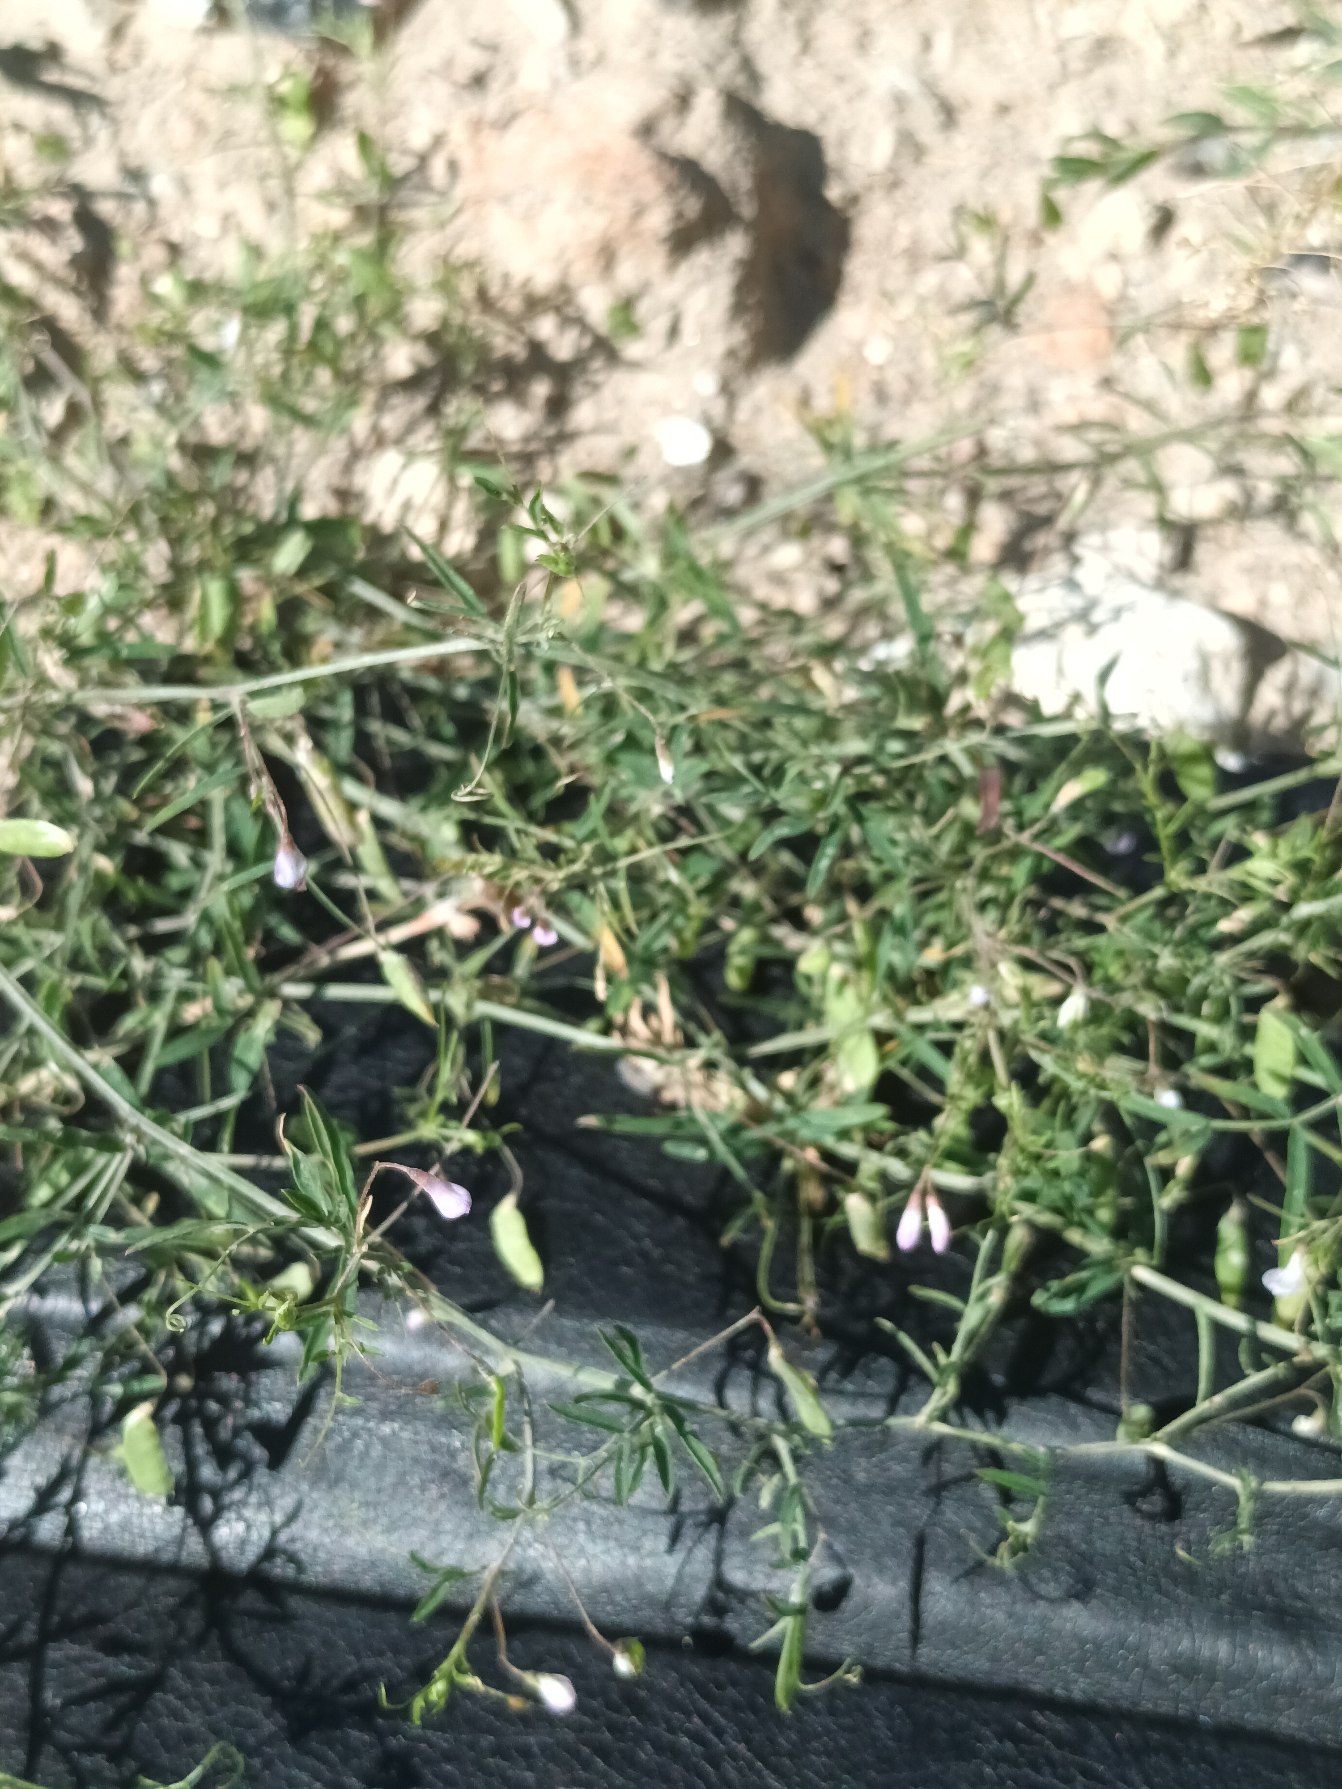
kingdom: Plantae
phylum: Tracheophyta
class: Magnoliopsida
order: Fabales
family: Fabaceae
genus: Vicia
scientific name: Vicia tetrasperma
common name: Tadder-vikke
